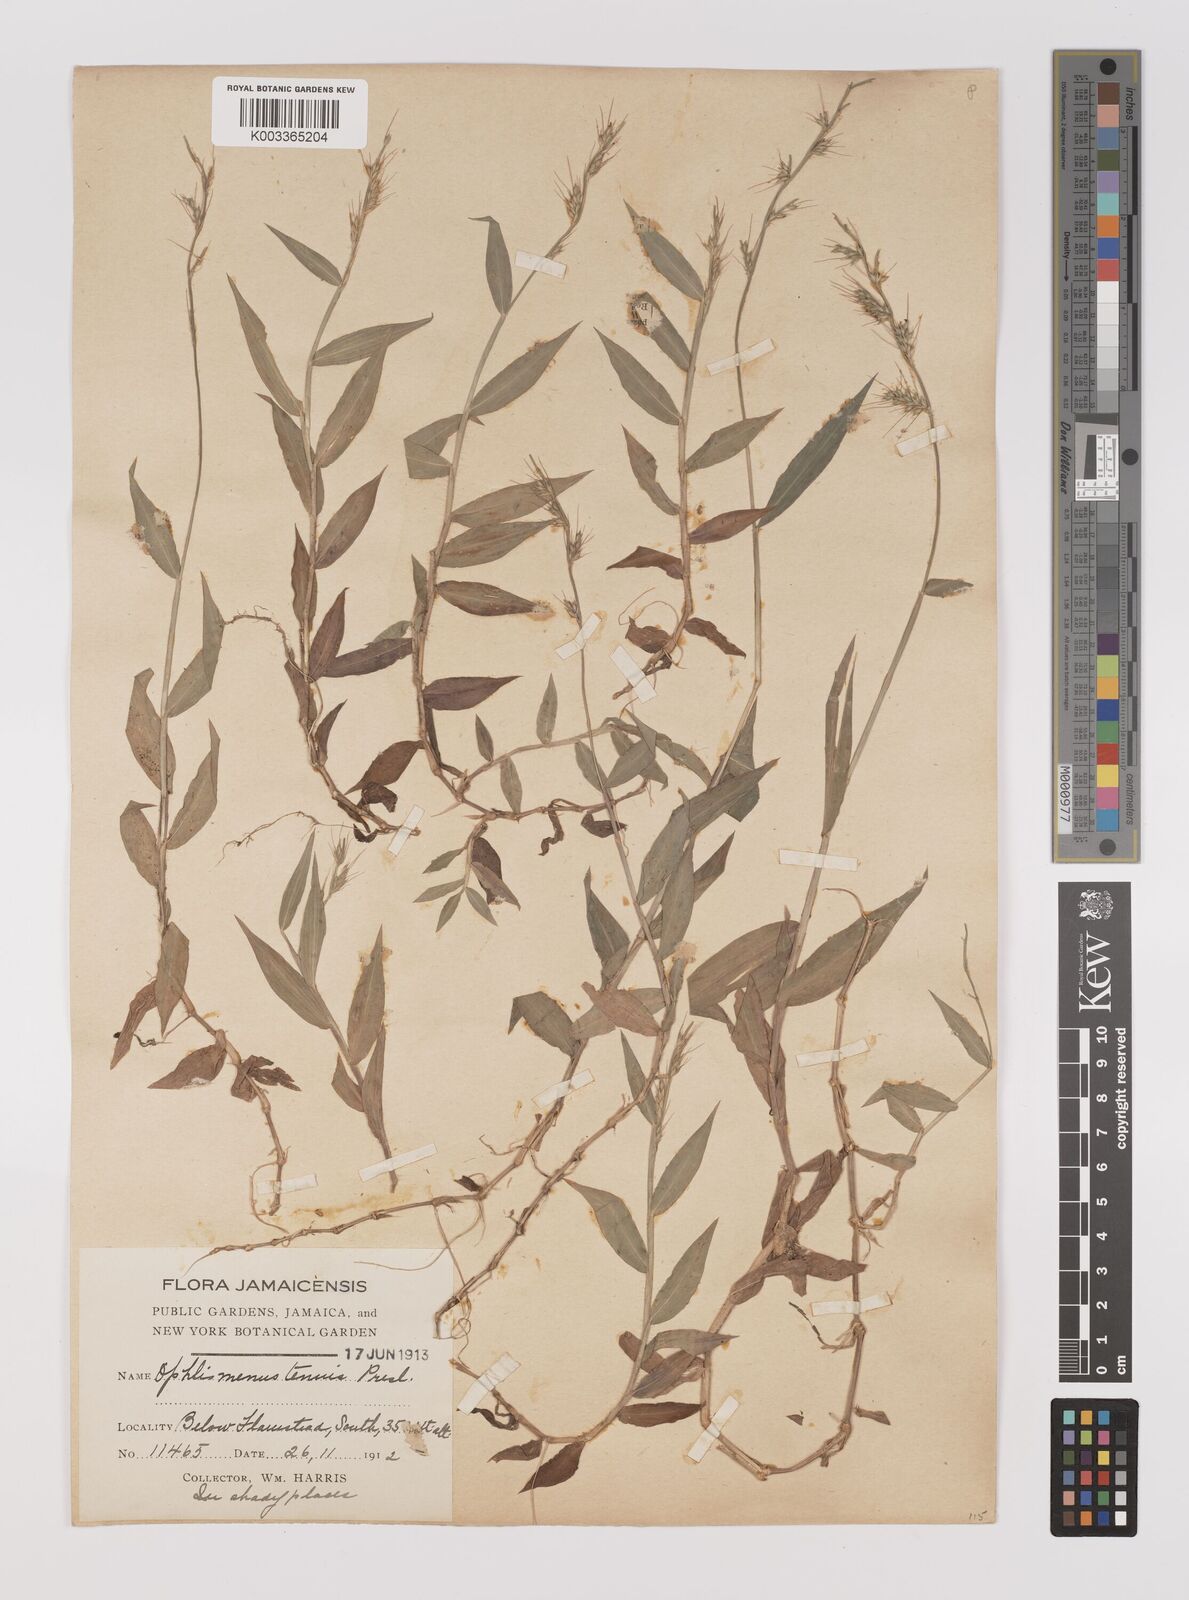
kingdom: Plantae
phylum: Tracheophyta
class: Liliopsida
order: Poales
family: Poaceae
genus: Oplismenus
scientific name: Oplismenus hirtellus
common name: Basketgrass
